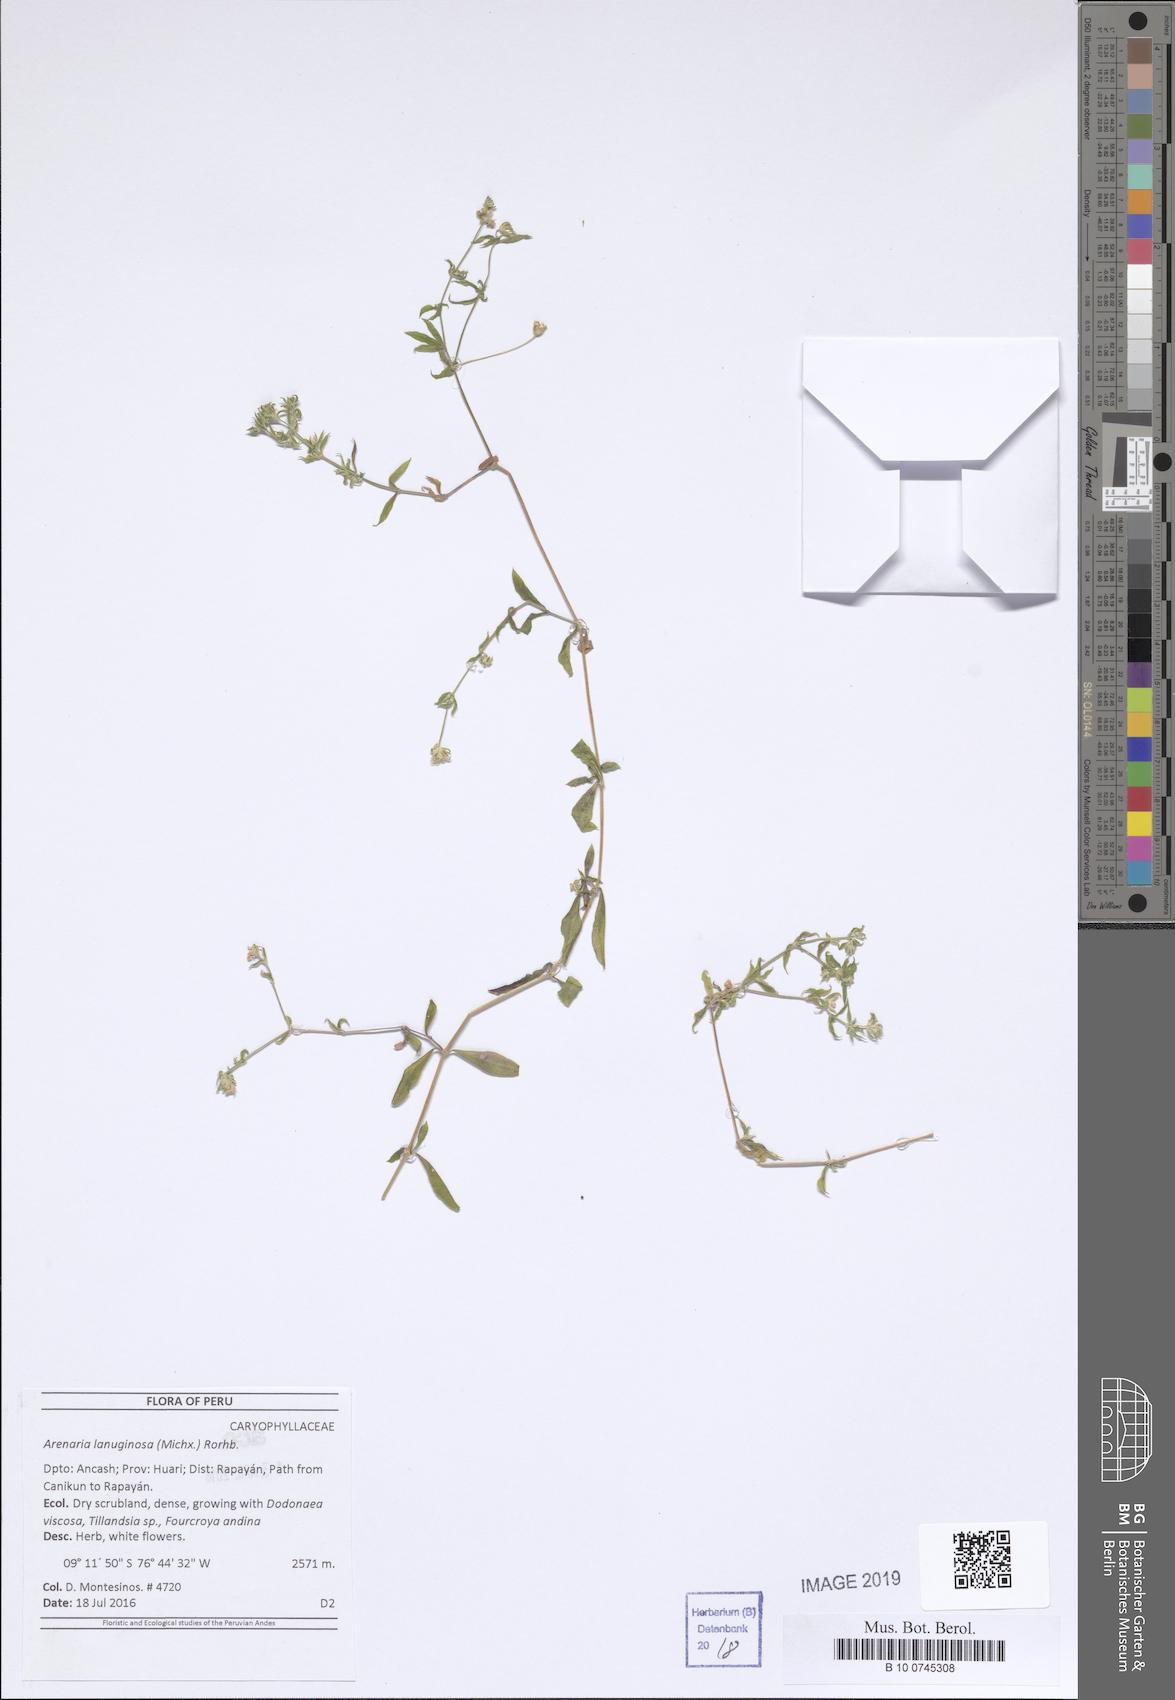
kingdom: Plantae
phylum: Tracheophyta
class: Magnoliopsida
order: Caryophyllales
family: Caryophyllaceae
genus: Arenaria
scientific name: Arenaria lanuginosa
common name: Spread sandwort
